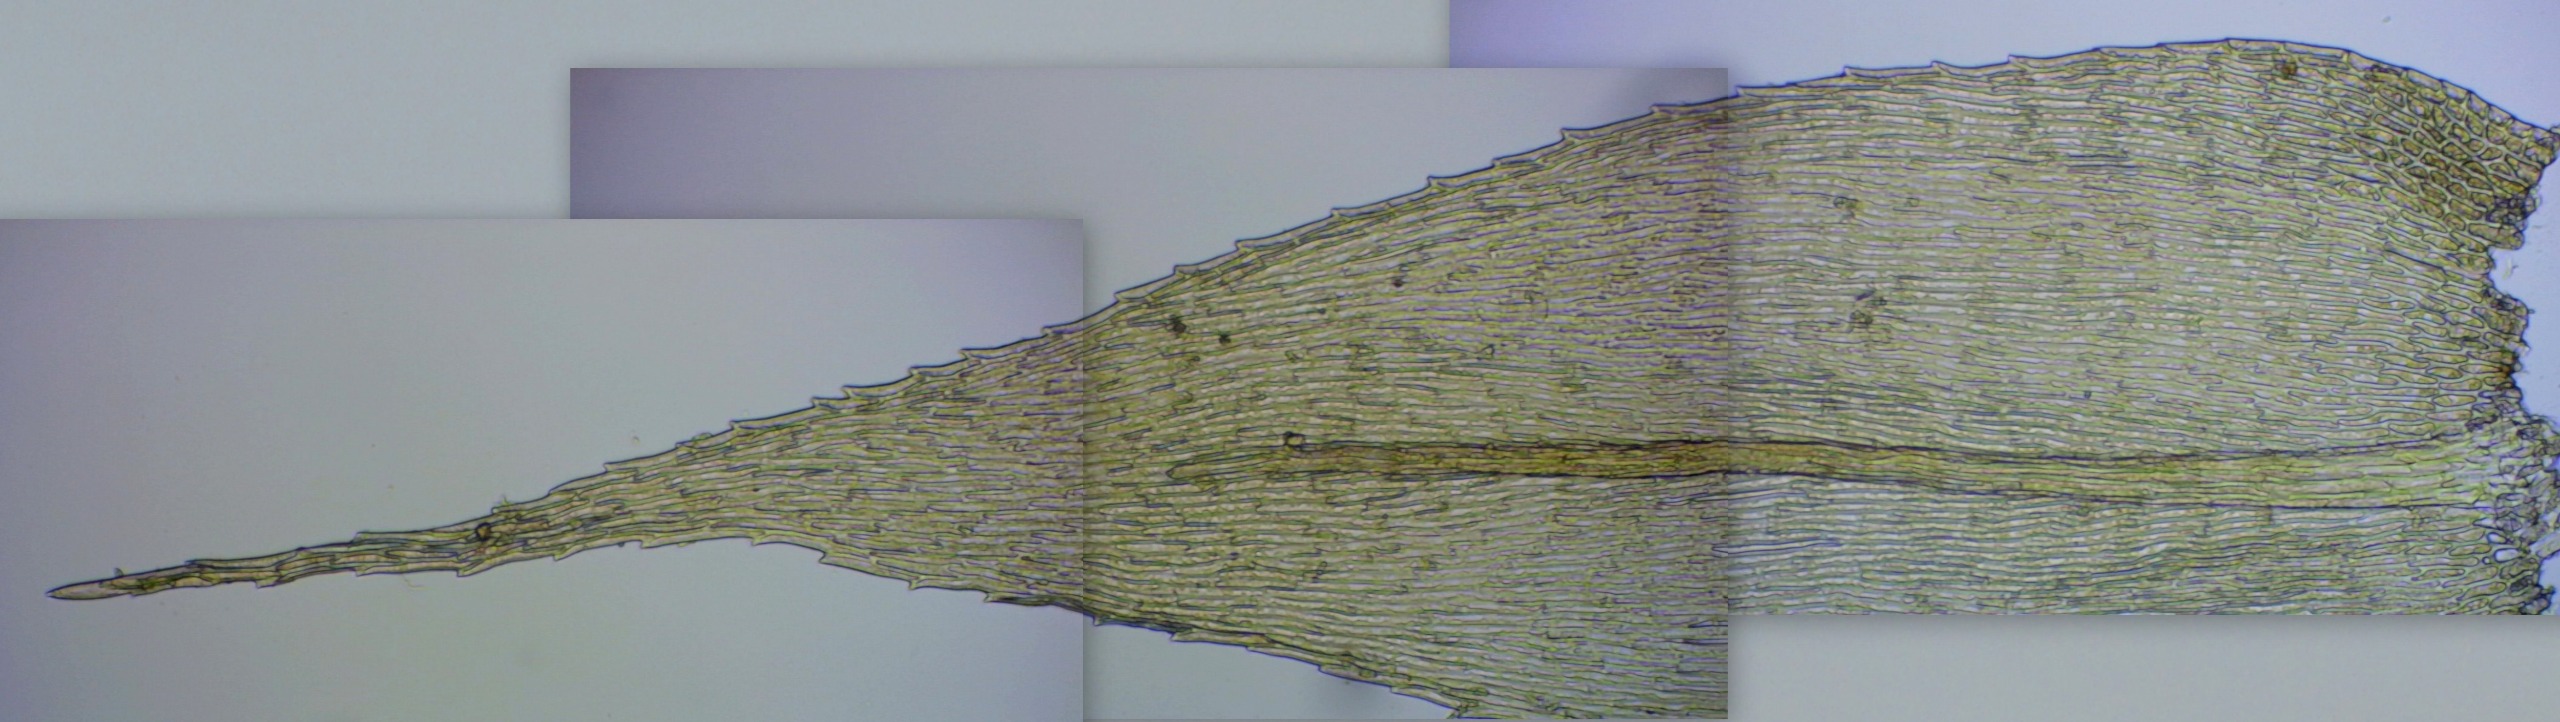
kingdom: Plantae
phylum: Bryophyta
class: Bryopsida
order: Hypnales
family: Brachytheciaceae
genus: Brachytheciastrum
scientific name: Brachytheciastrum velutinum
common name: Fløjls-kortkapsel
